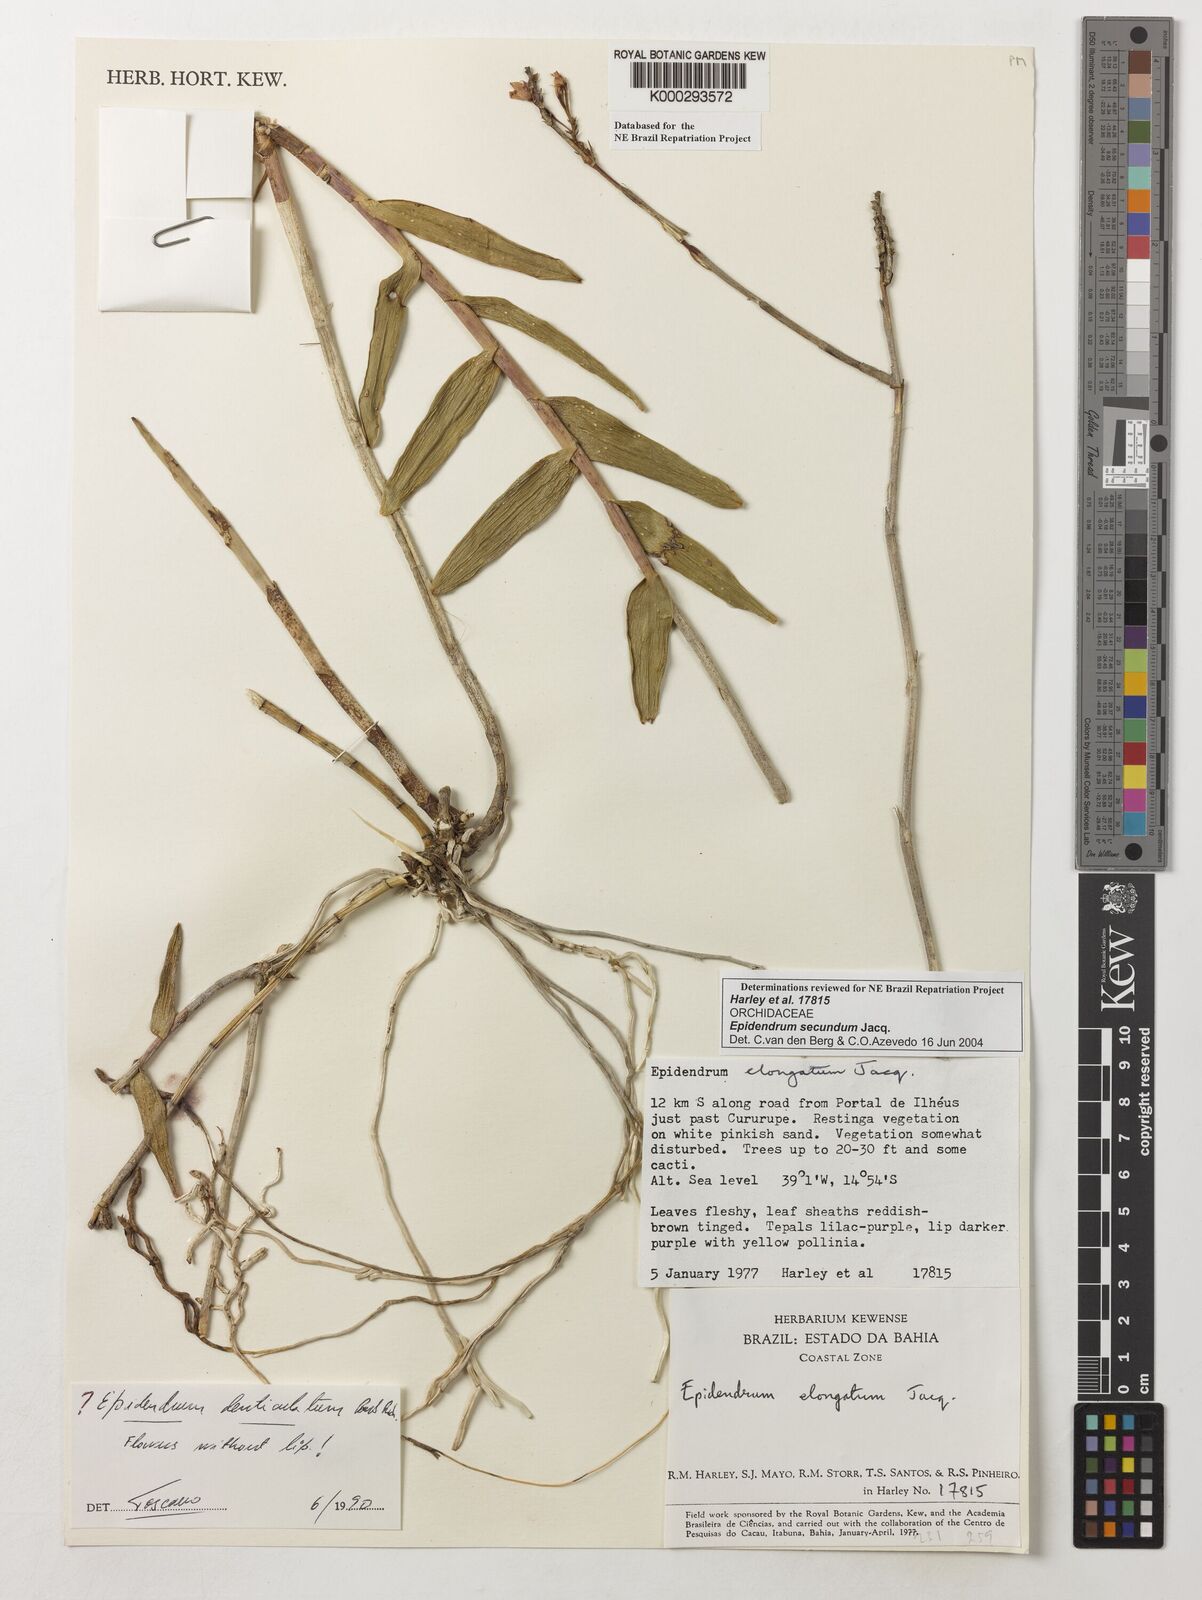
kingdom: Plantae
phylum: Tracheophyta
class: Liliopsida
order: Asparagales
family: Orchidaceae
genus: Epidendrum
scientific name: Epidendrum secundum
